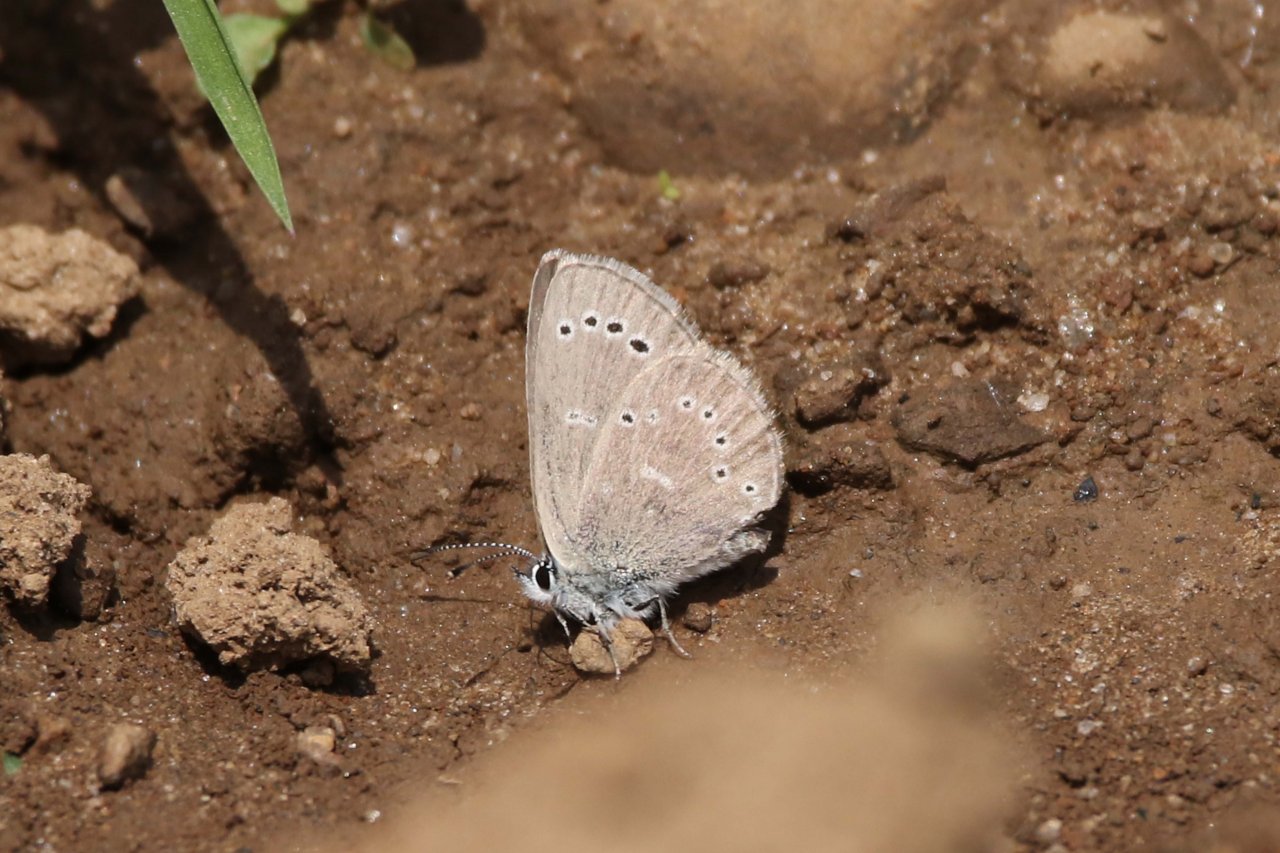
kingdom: Animalia
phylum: Arthropoda
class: Insecta
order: Lepidoptera
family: Lycaenidae
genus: Glaucopsyche
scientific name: Glaucopsyche lygdamus
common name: Silvery Blue
